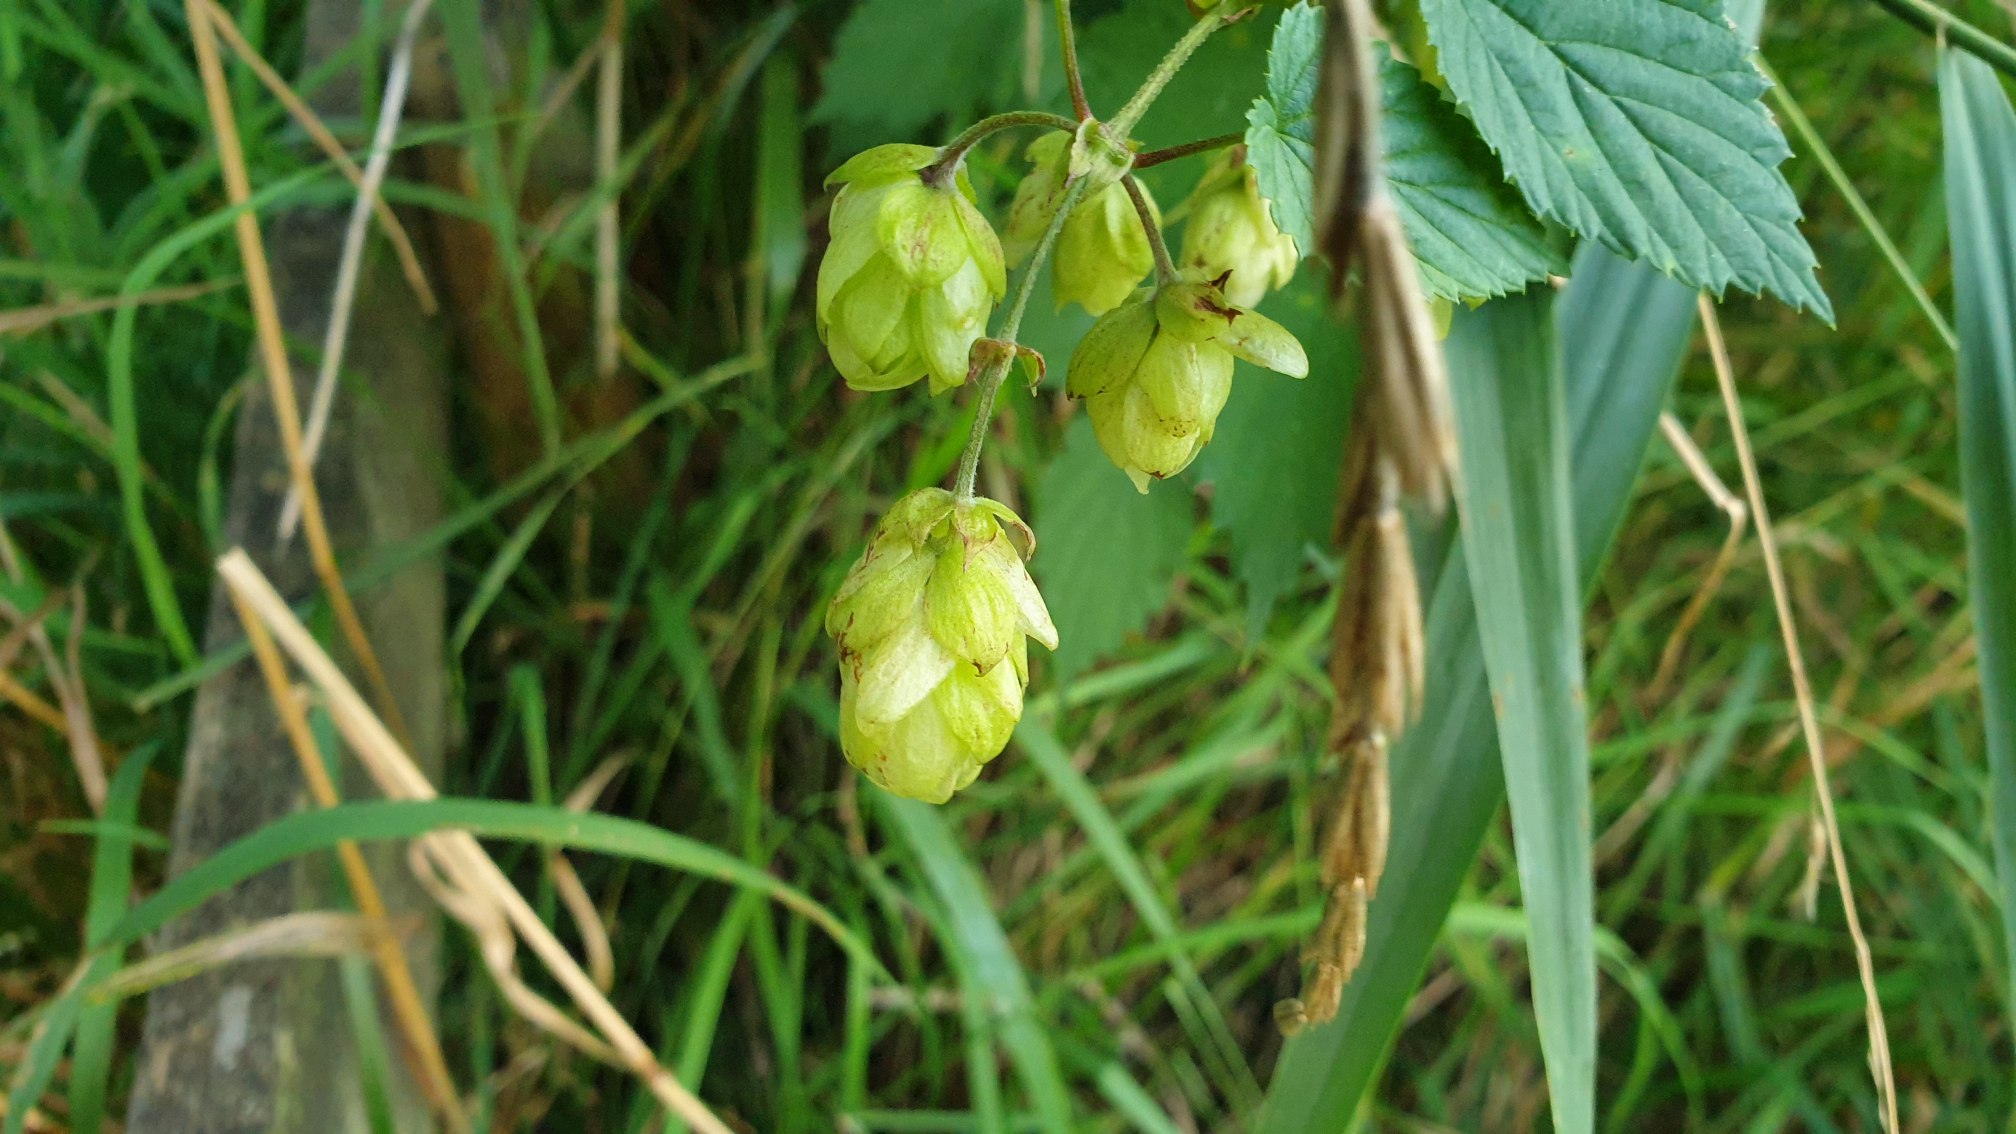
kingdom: Plantae
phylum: Tracheophyta
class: Magnoliopsida
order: Rosales
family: Cannabaceae
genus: Humulus
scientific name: Humulus lupulus
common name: Humle
